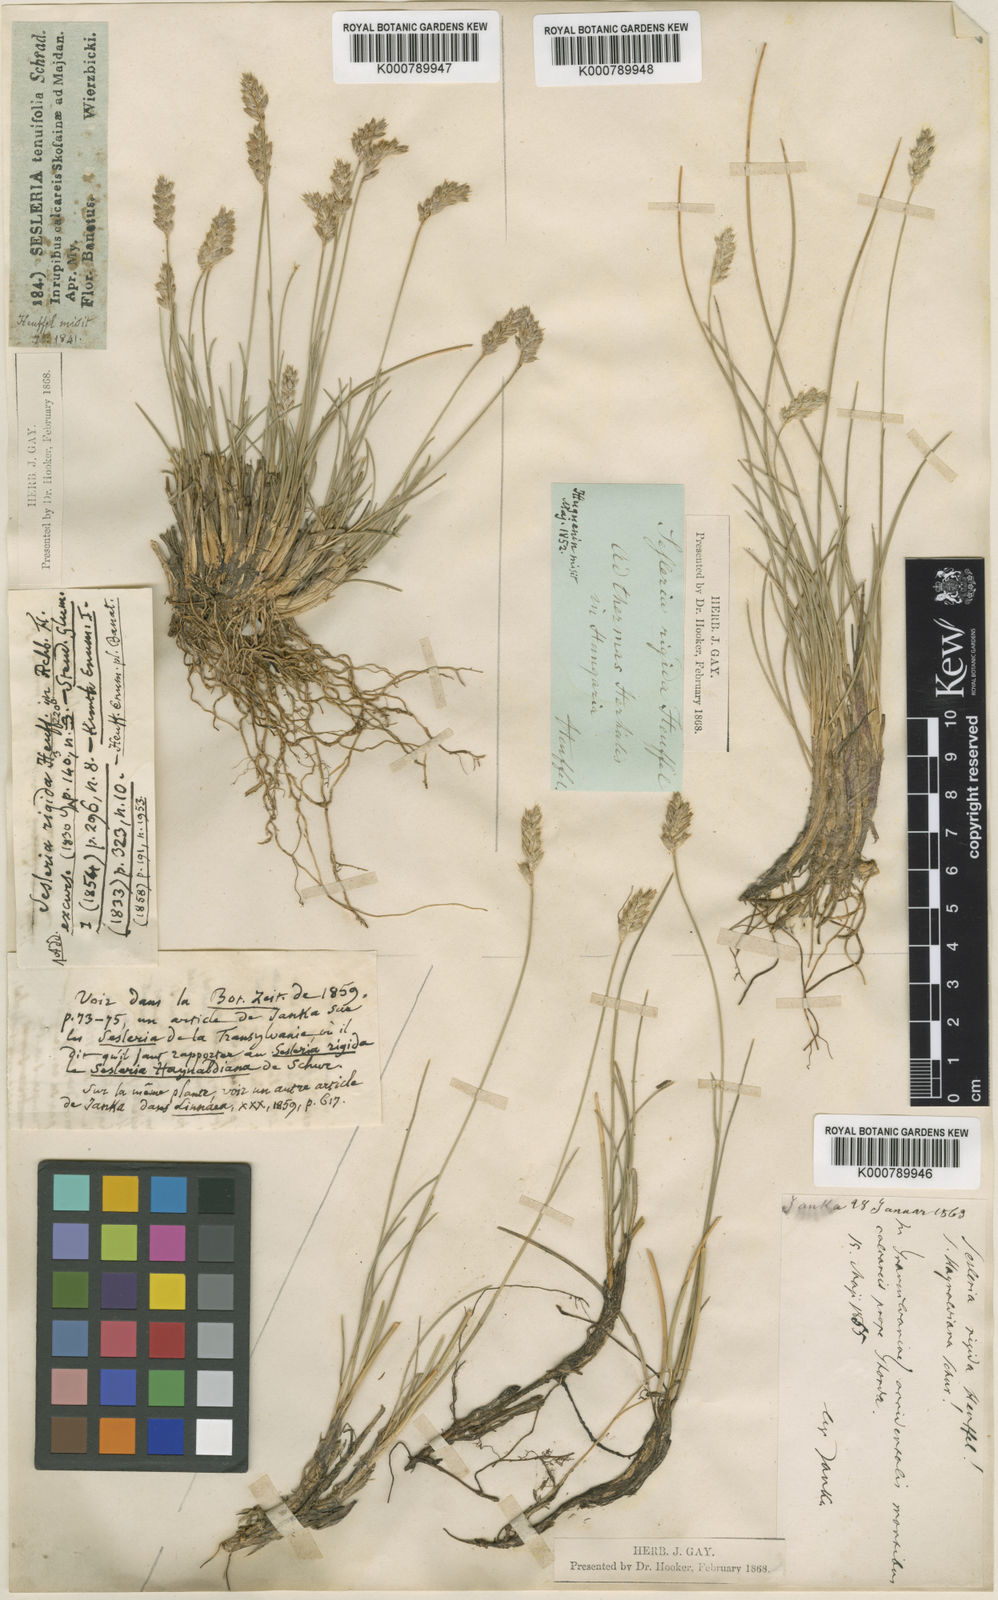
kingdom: Plantae
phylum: Tracheophyta
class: Liliopsida
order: Poales
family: Poaceae
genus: Sesleria
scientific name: Sesleria rigida
